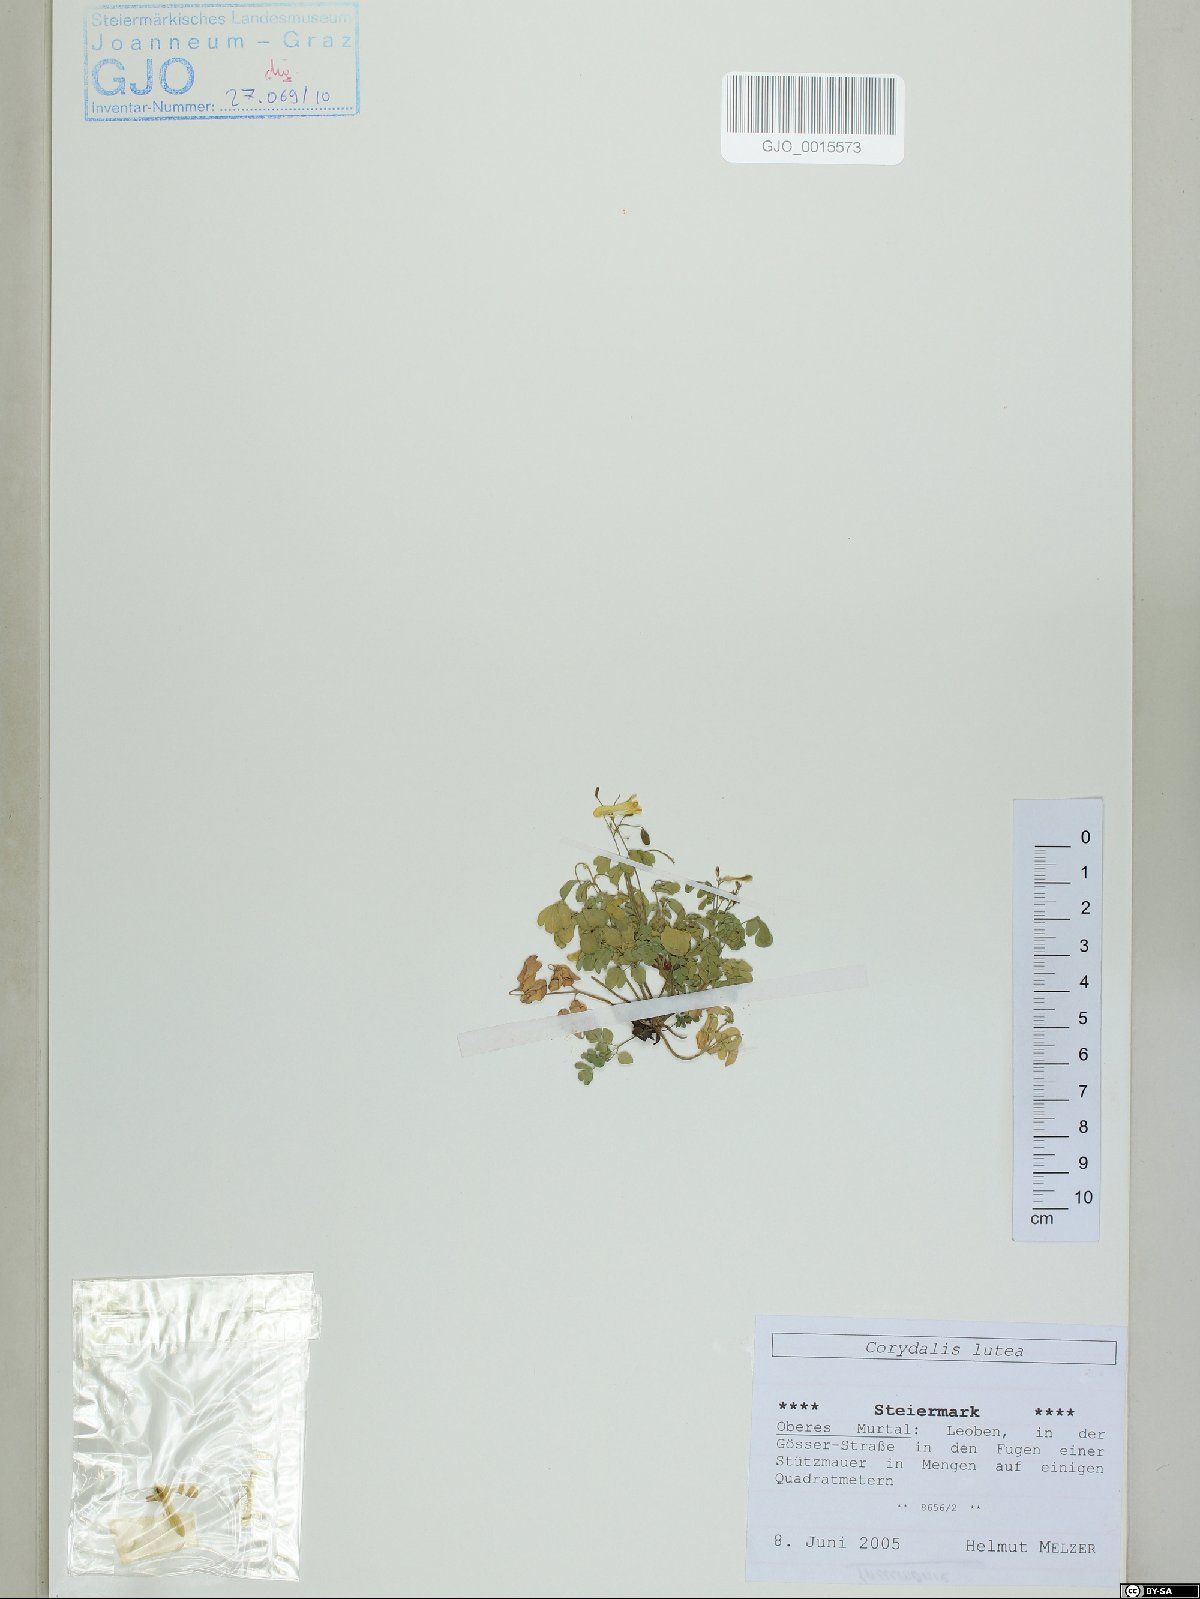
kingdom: Plantae
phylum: Tracheophyta
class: Magnoliopsida
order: Ranunculales
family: Papaveraceae
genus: Pseudofumaria
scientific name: Pseudofumaria lutea
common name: Yellow corydalis
